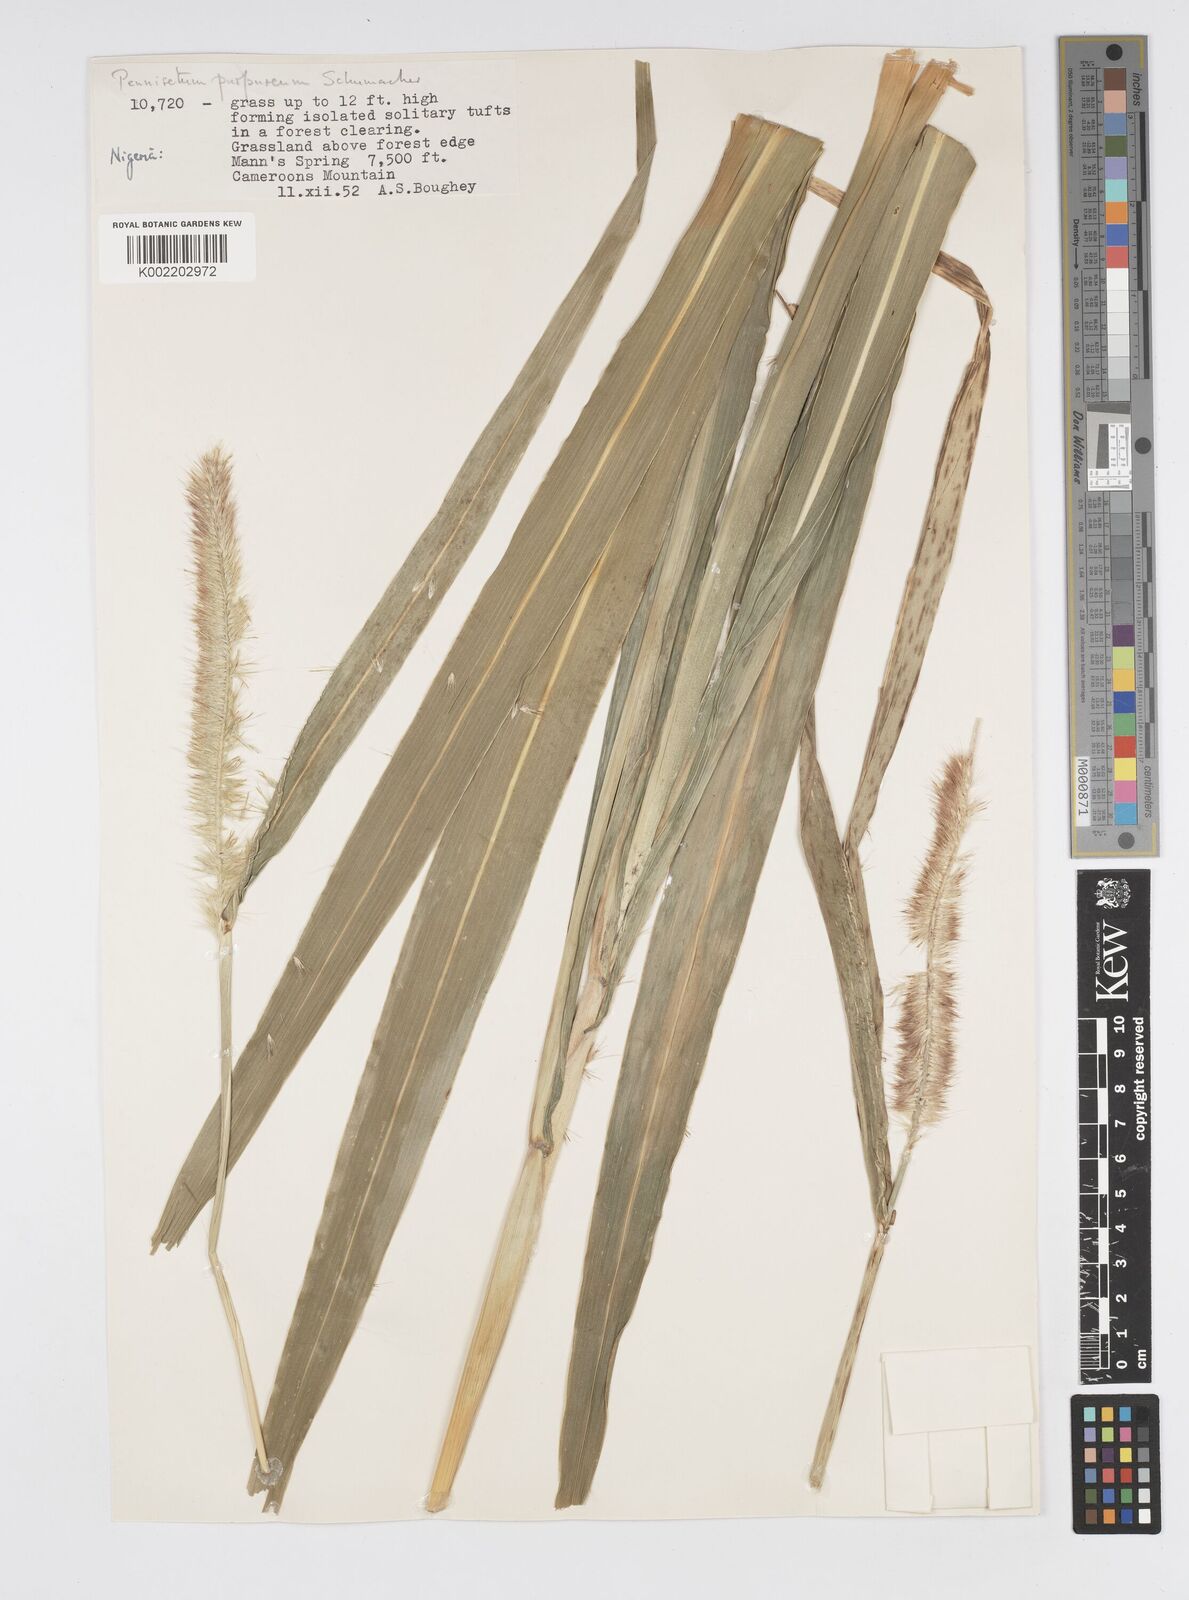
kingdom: Plantae
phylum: Tracheophyta
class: Liliopsida
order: Poales
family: Poaceae
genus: Cenchrus
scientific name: Cenchrus purpureus
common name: Elephant grass
